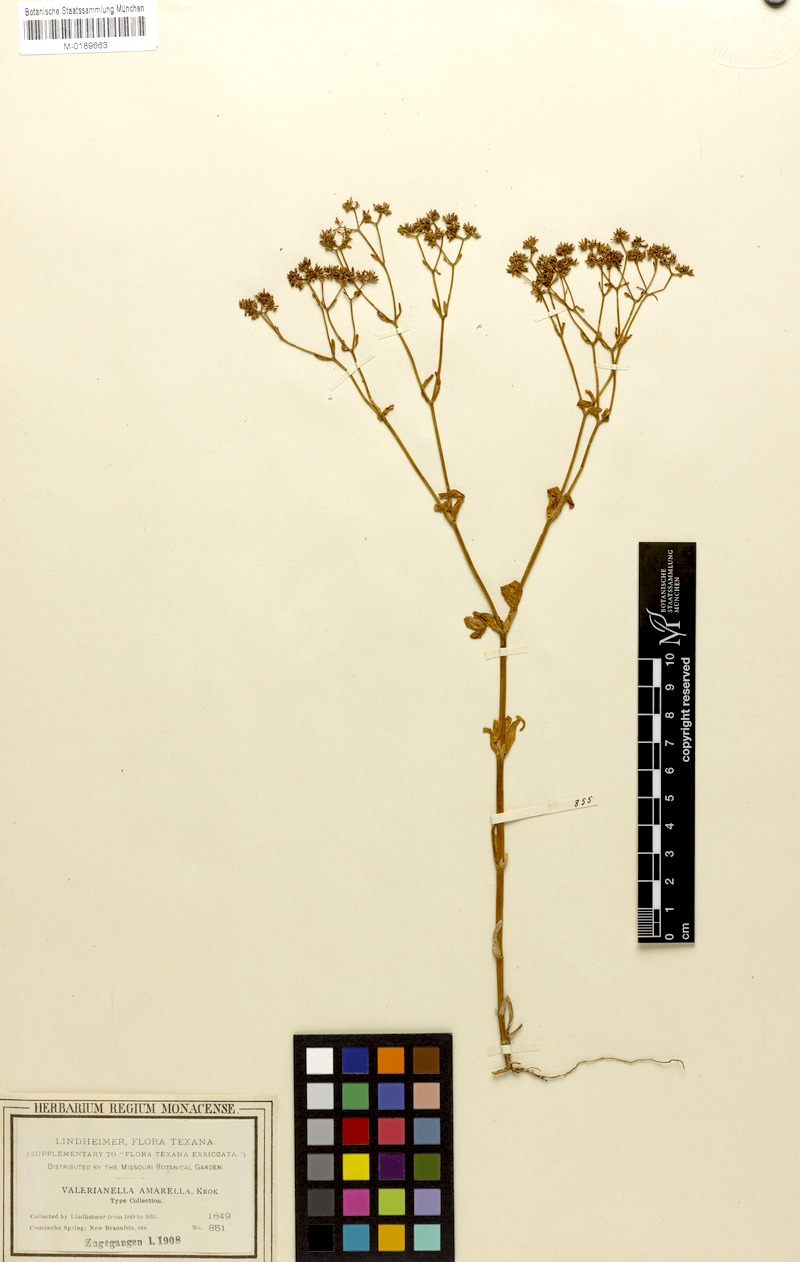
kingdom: Plantae
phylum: Tracheophyta
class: Magnoliopsida
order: Dipsacales
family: Caprifoliaceae
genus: Valerianella
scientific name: Valerianella amarella
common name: Hariy cornsalad
